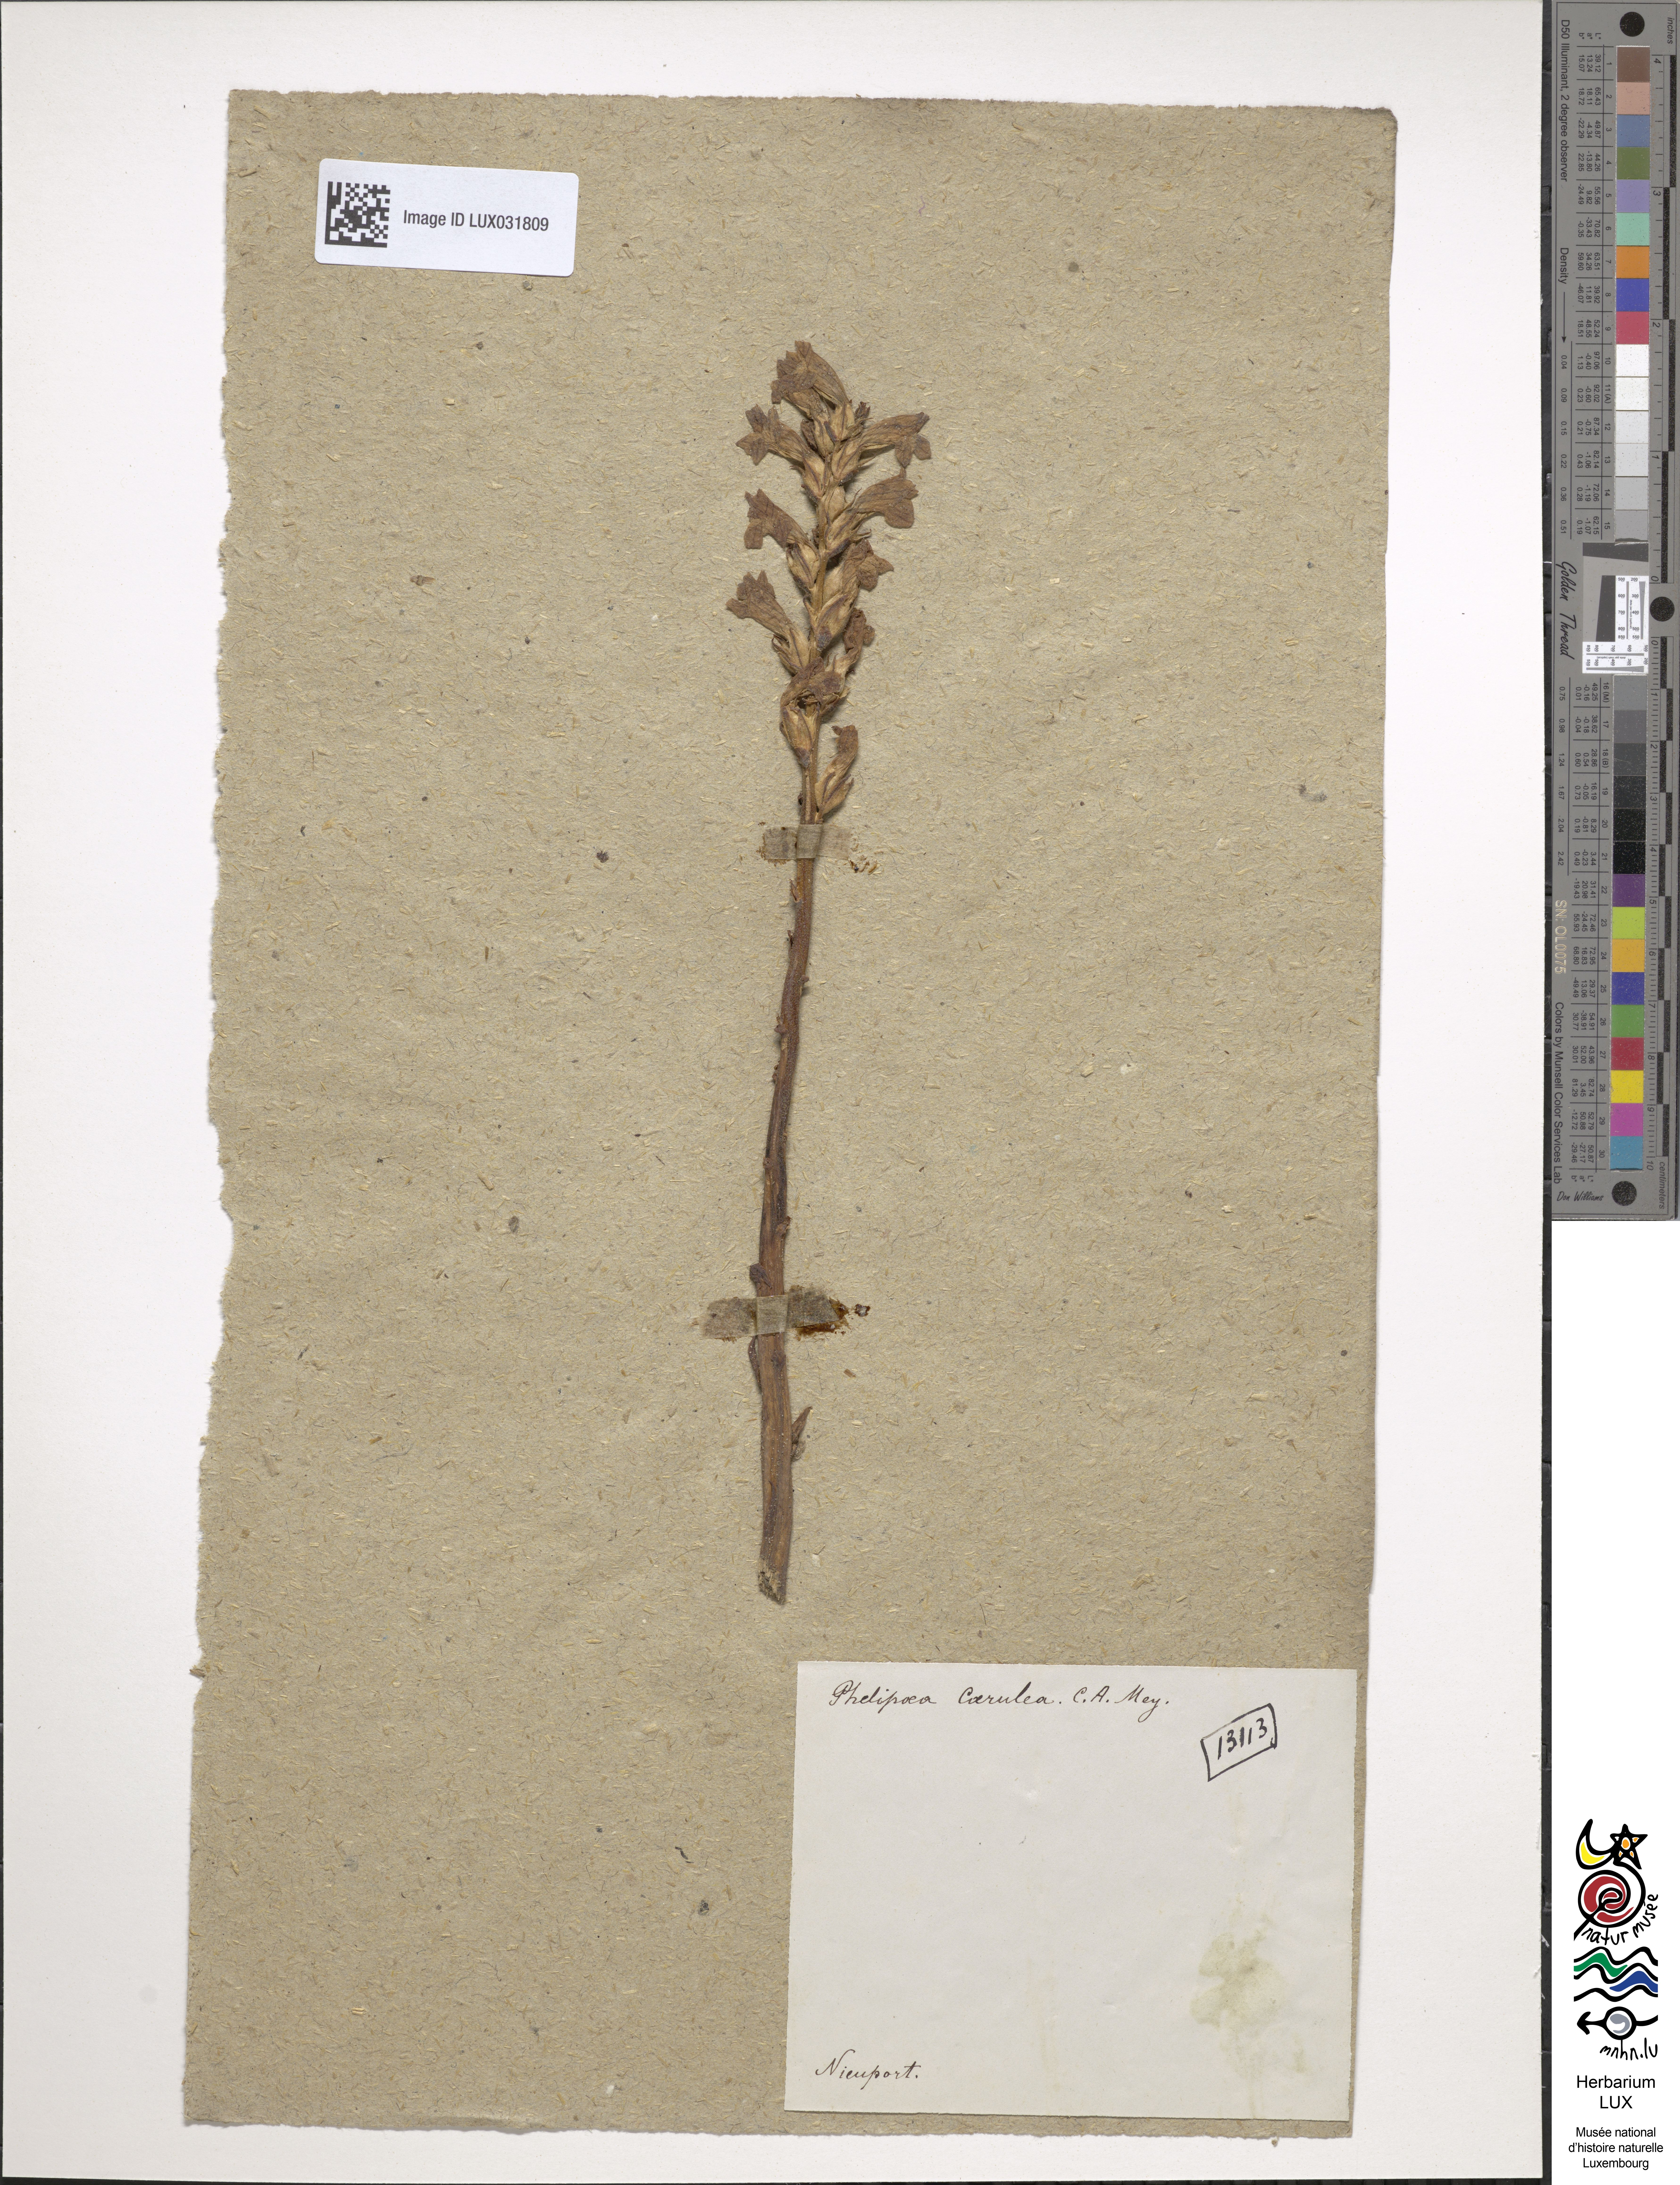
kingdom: Plantae
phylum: Tracheophyta
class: Magnoliopsida
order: Lamiales
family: Orobanchaceae
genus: Phelipanche
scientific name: Phelipanche purpurea
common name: Purple broomrape
